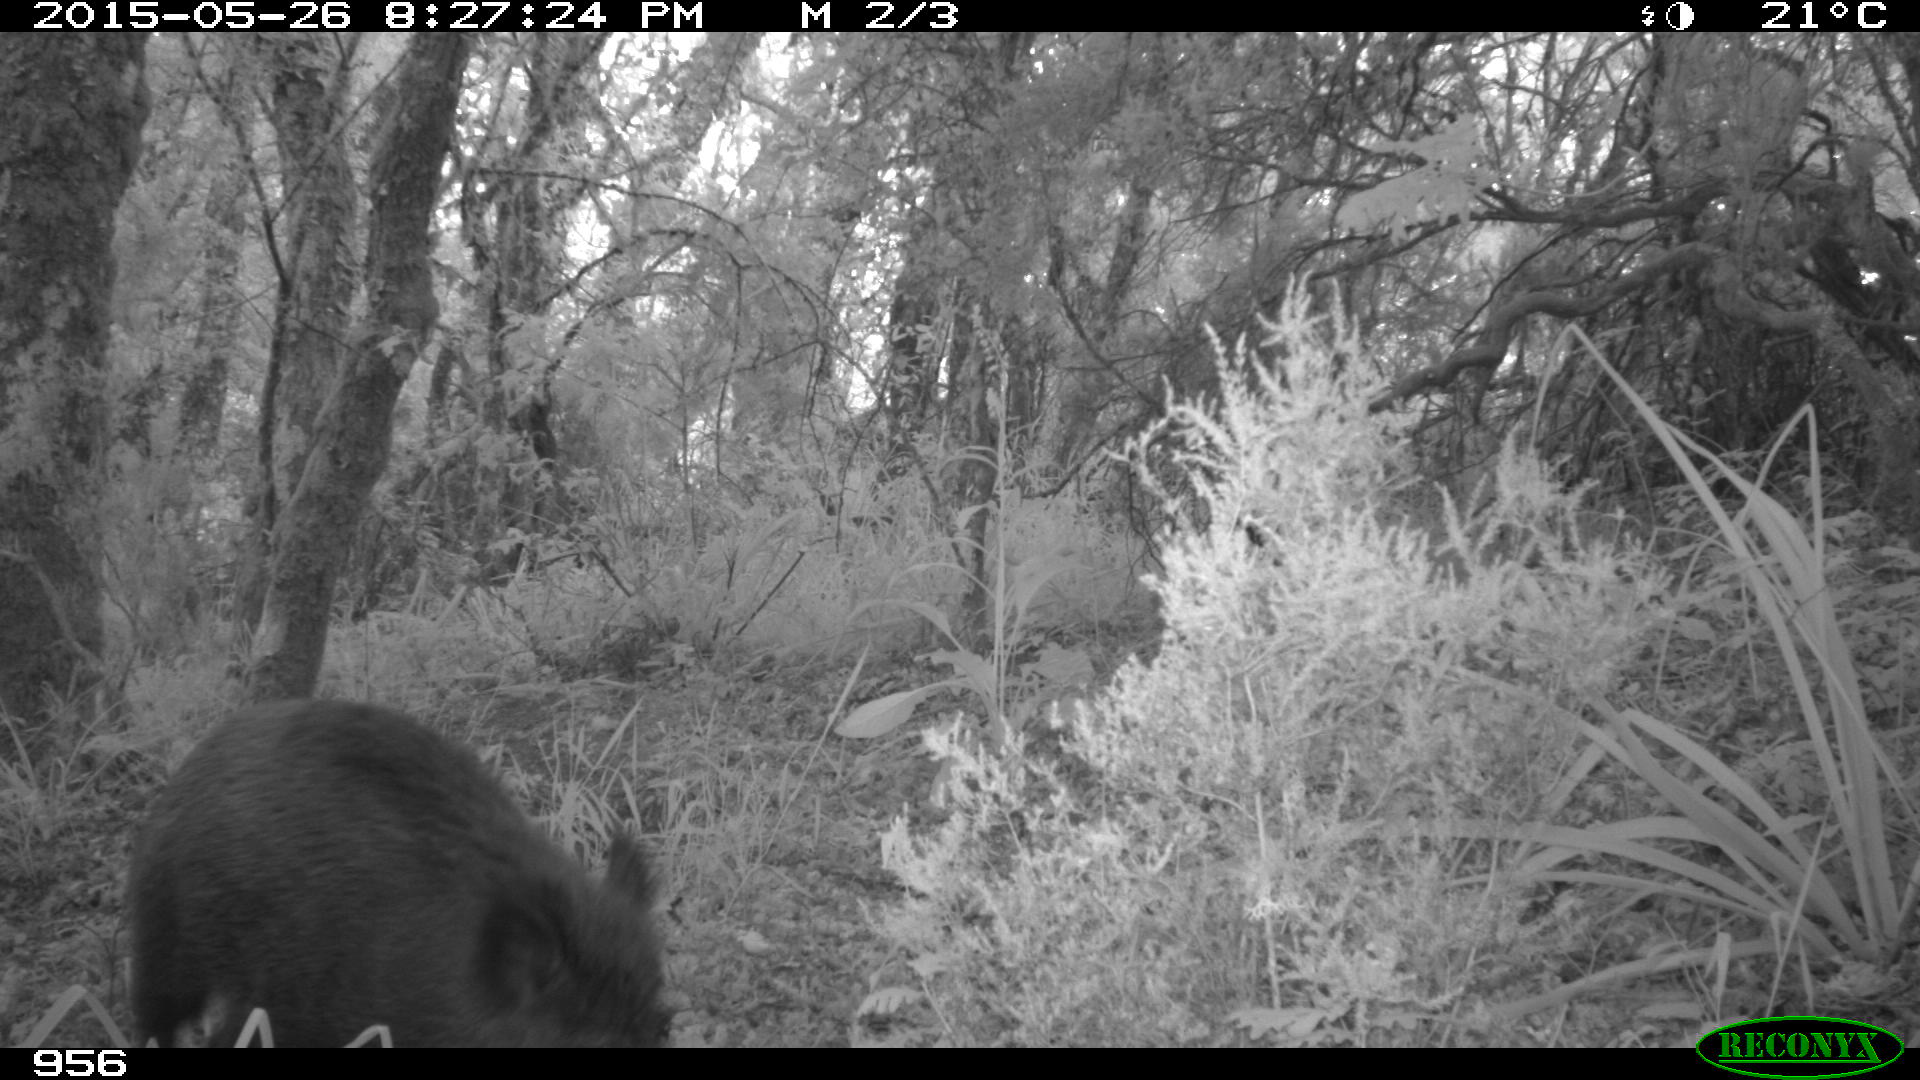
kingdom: Animalia
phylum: Chordata
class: Mammalia
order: Artiodactyla
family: Suidae
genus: Sus
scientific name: Sus scrofa
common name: Wild boar
